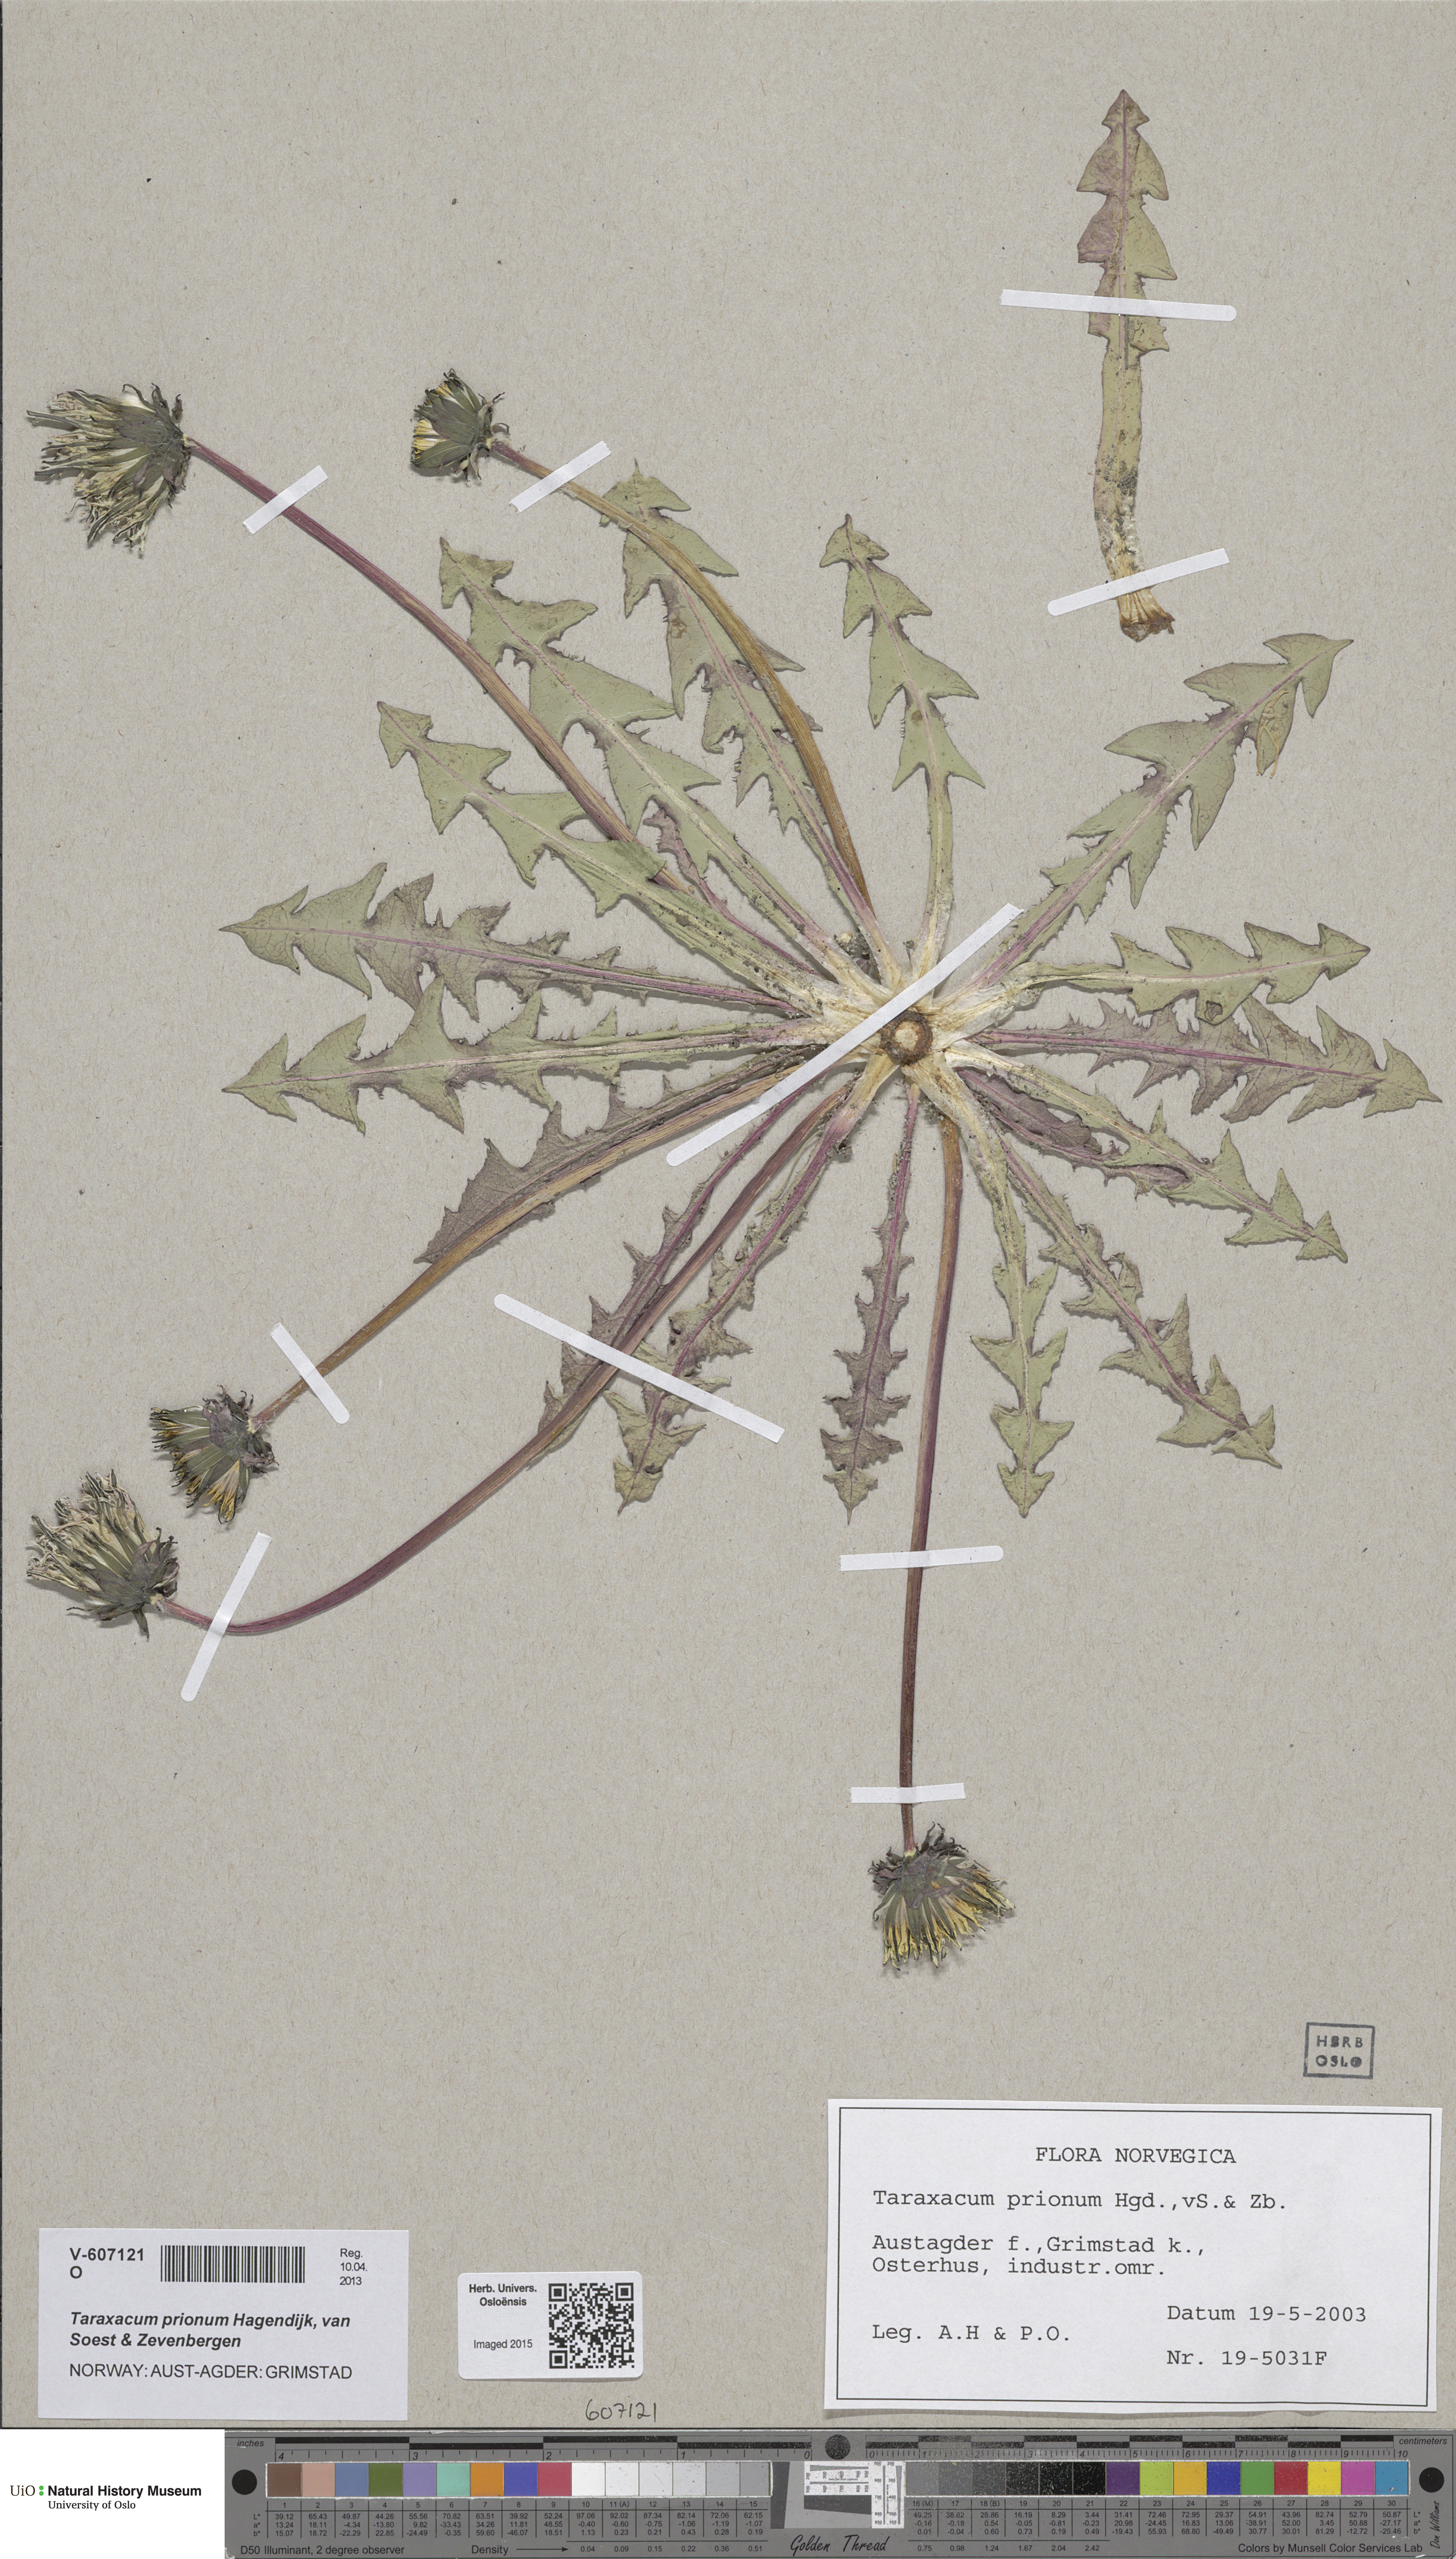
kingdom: Plantae
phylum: Tracheophyta
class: Magnoliopsida
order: Asterales
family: Asteraceae
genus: Taraxacum
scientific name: Taraxacum prionum
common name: Saw-leaved dandelion
